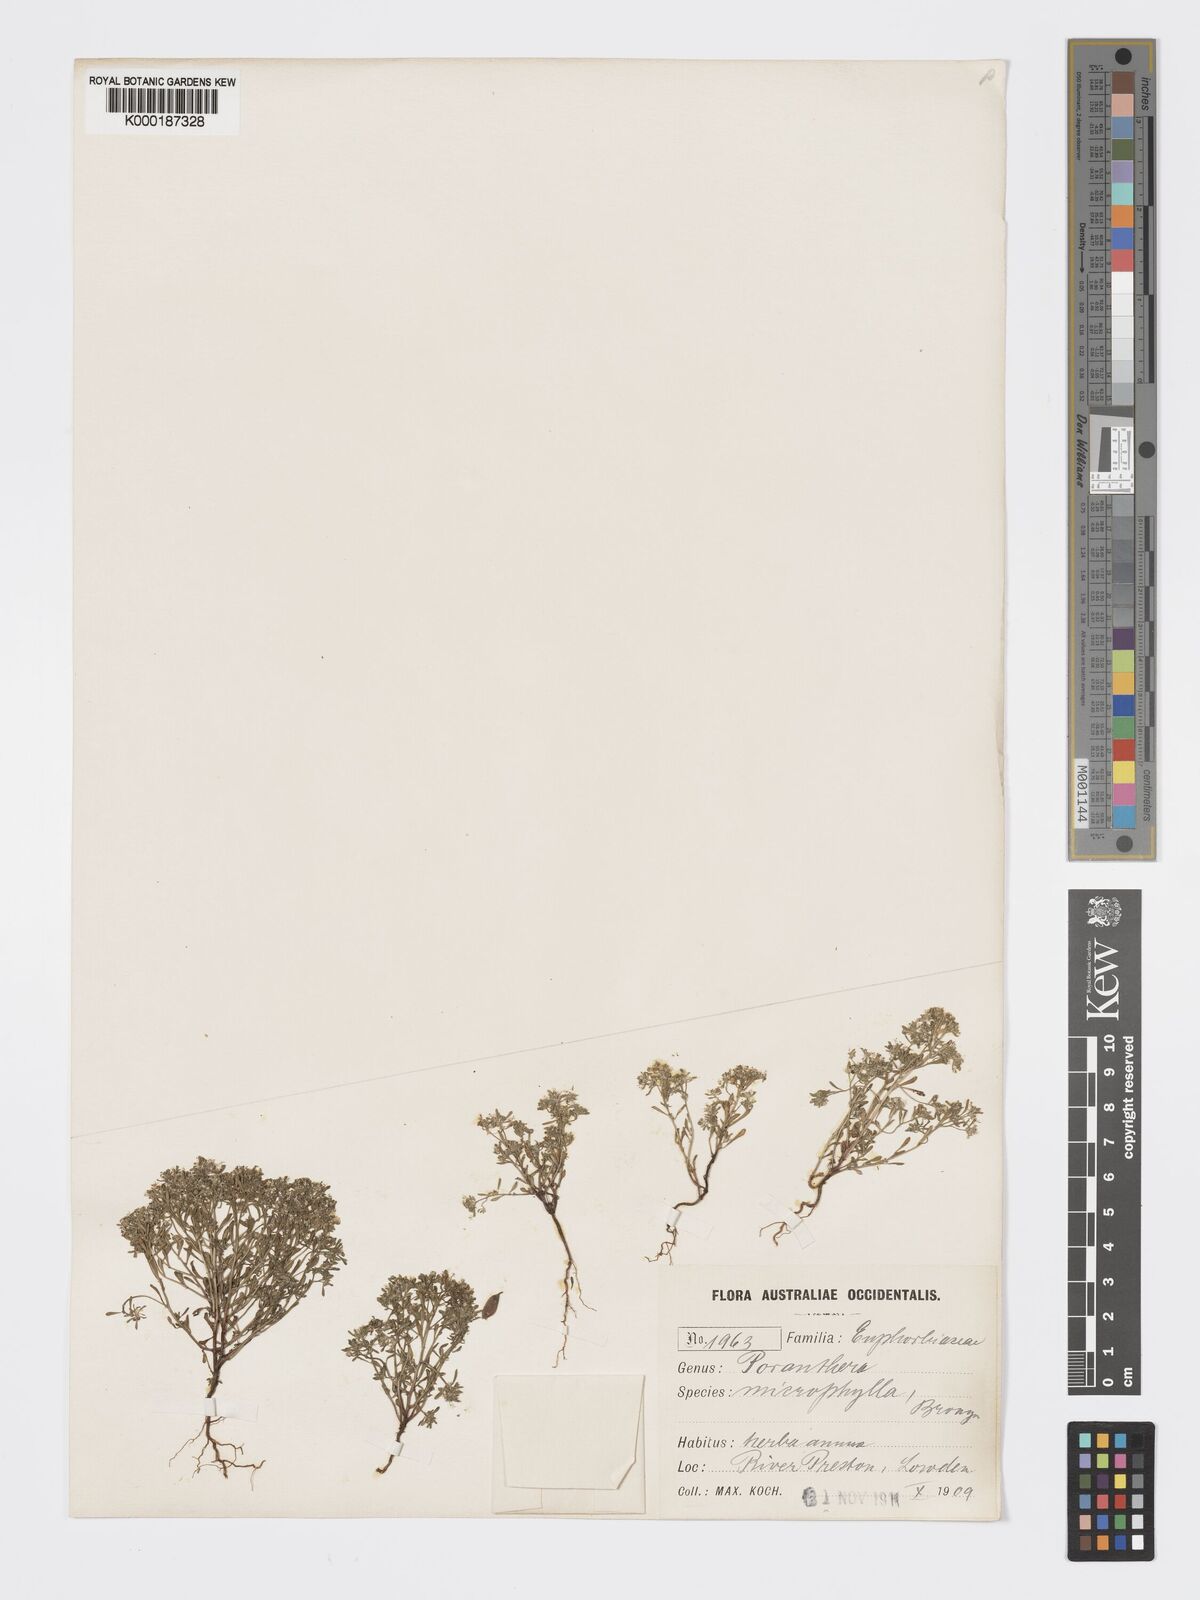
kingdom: Plantae
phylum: Tracheophyta
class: Magnoliopsida
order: Malpighiales
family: Phyllanthaceae
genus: Poranthera
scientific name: Poranthera microphylla
